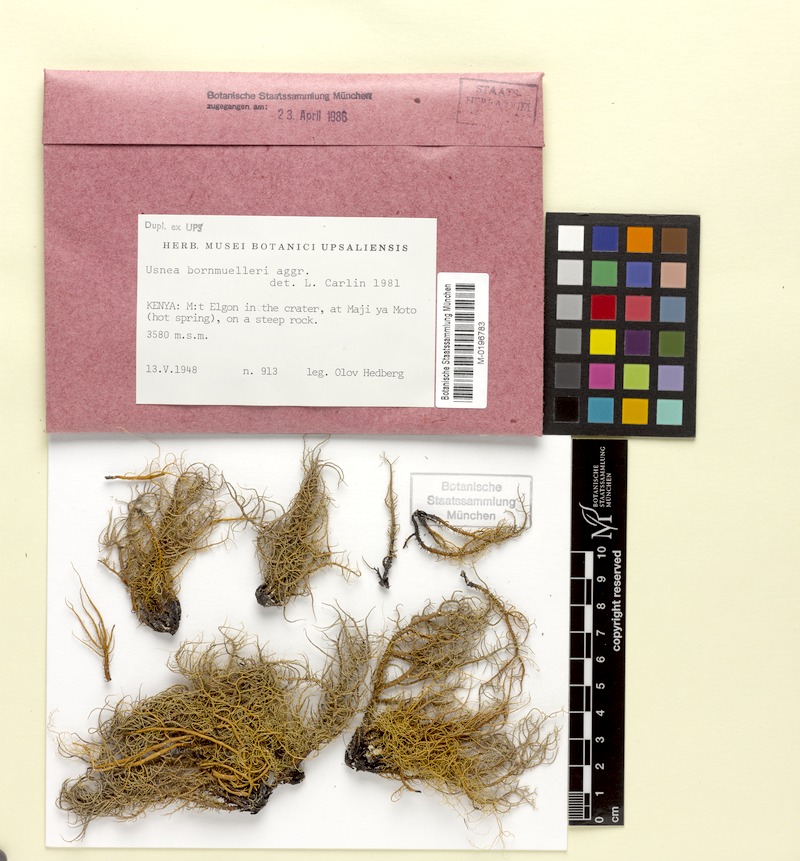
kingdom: Fungi
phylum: Ascomycota
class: Lecanoromycetes
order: Lecanorales
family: Parmeliaceae
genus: Usnea
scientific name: Usnea bornmuelleri
